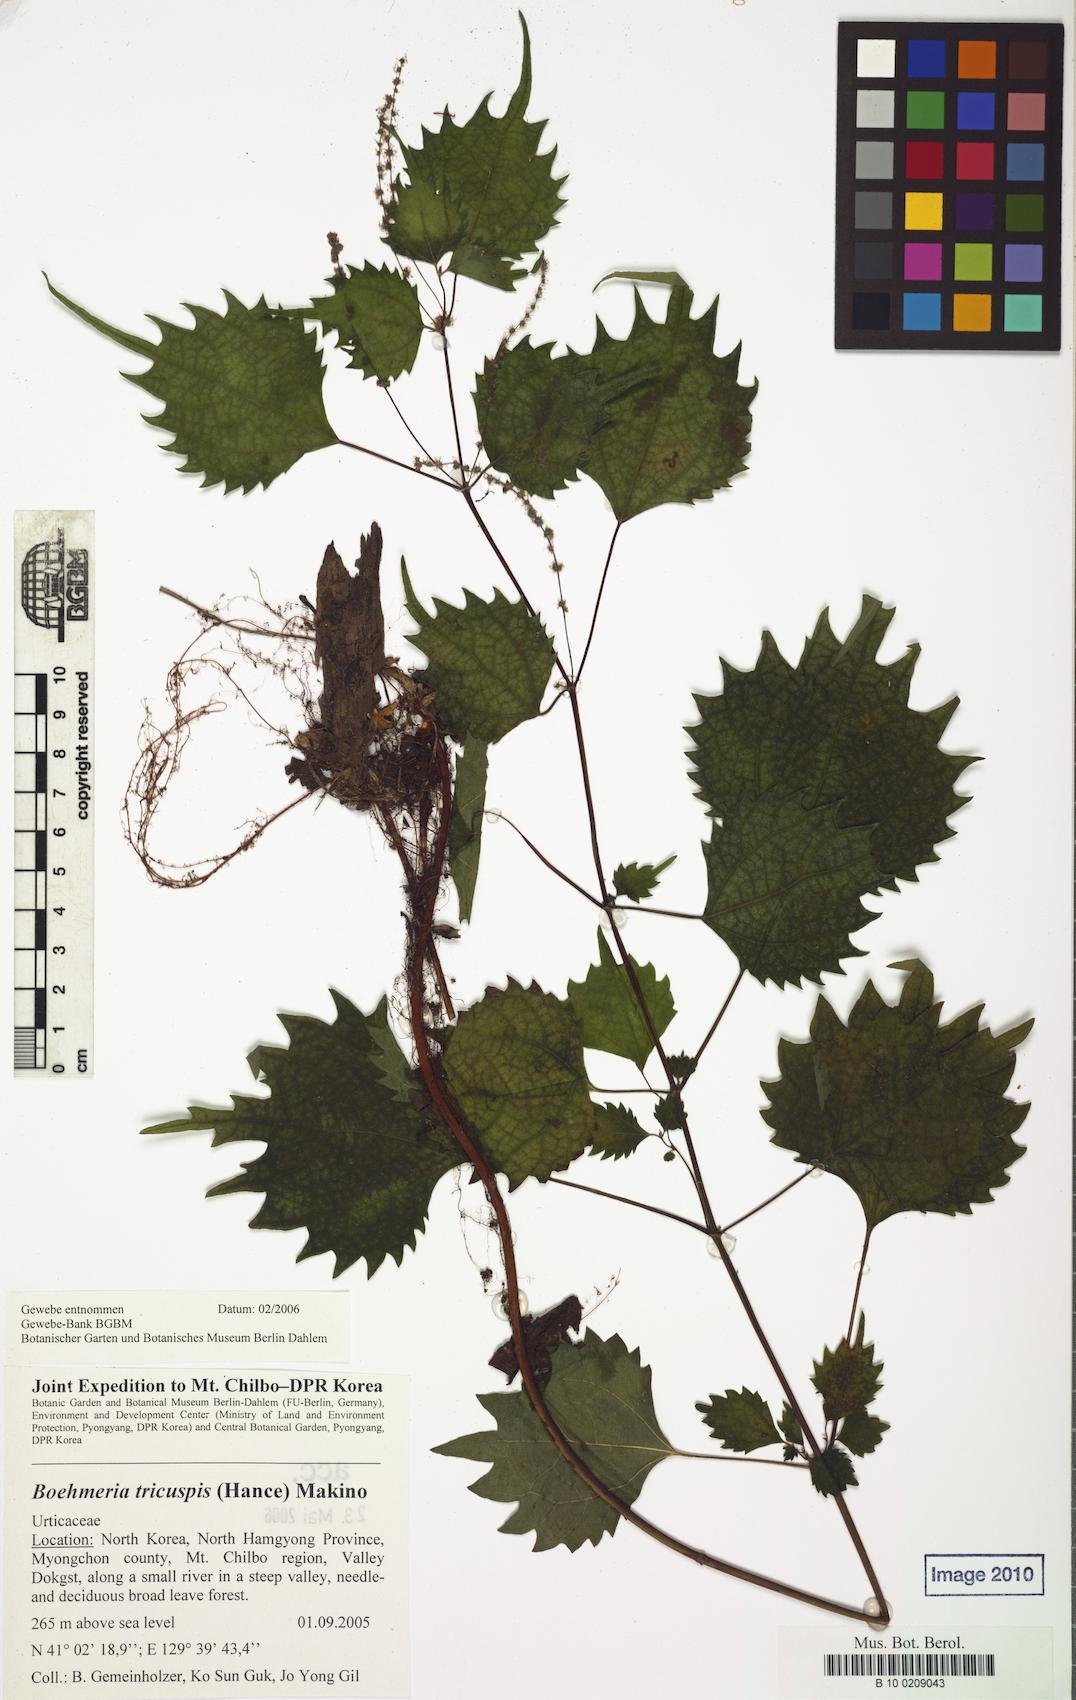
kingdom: Plantae
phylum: Tracheophyta
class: Magnoliopsida
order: Rosales
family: Urticaceae
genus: Boehmeria
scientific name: Boehmeria japonica
